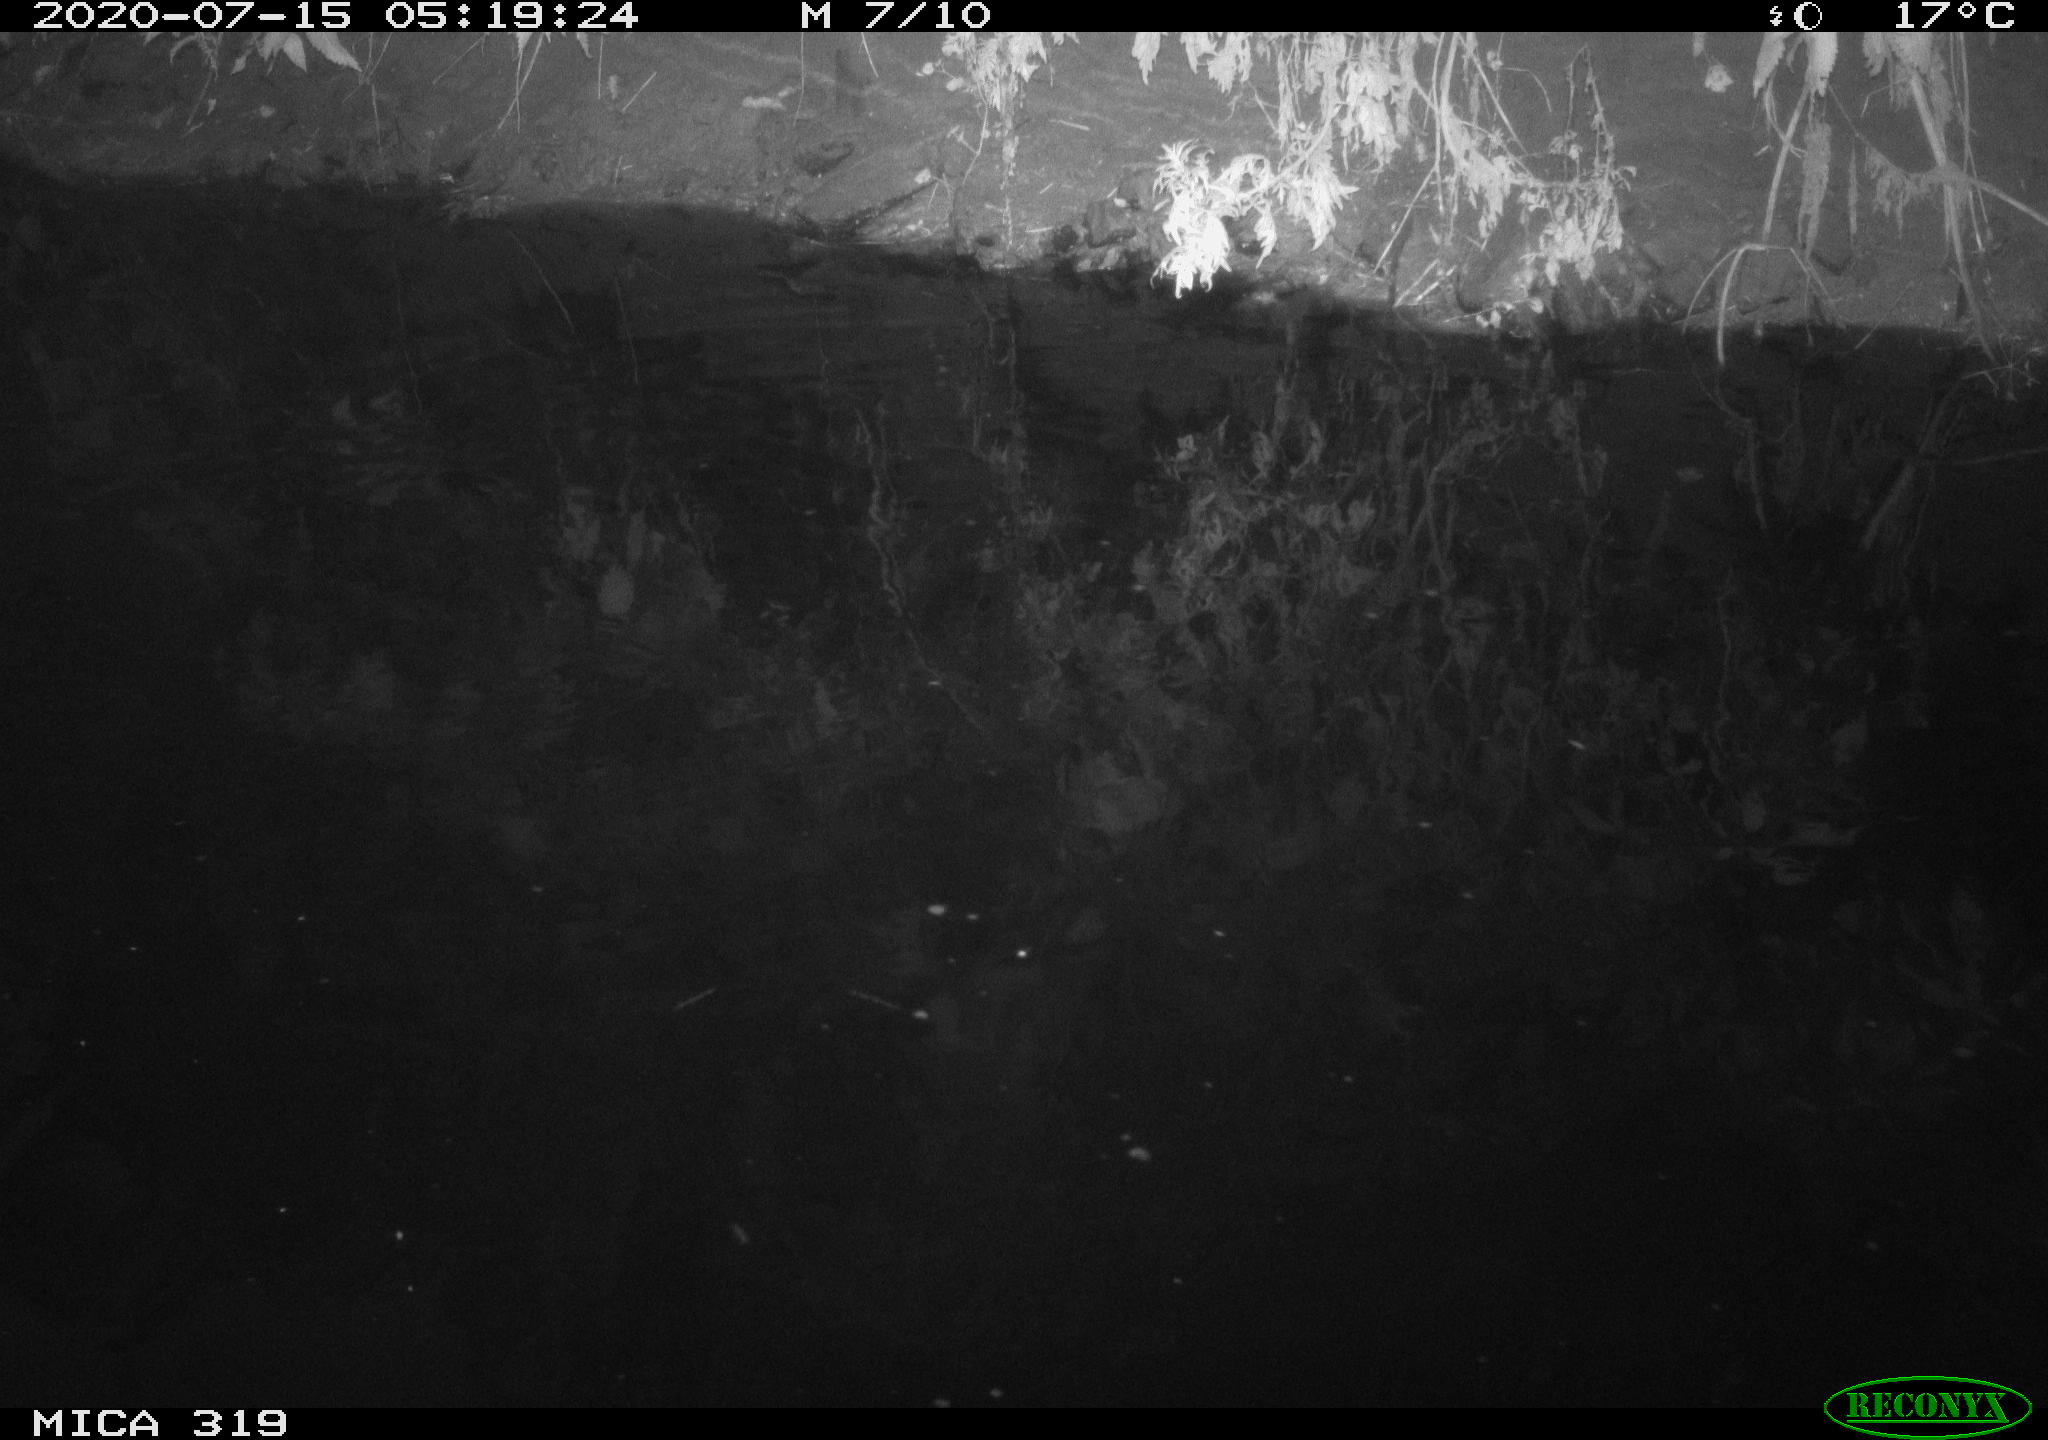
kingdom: Animalia
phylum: Chordata
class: Aves
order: Anseriformes
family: Anatidae
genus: Anas
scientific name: Anas platyrhynchos
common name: Mallard
